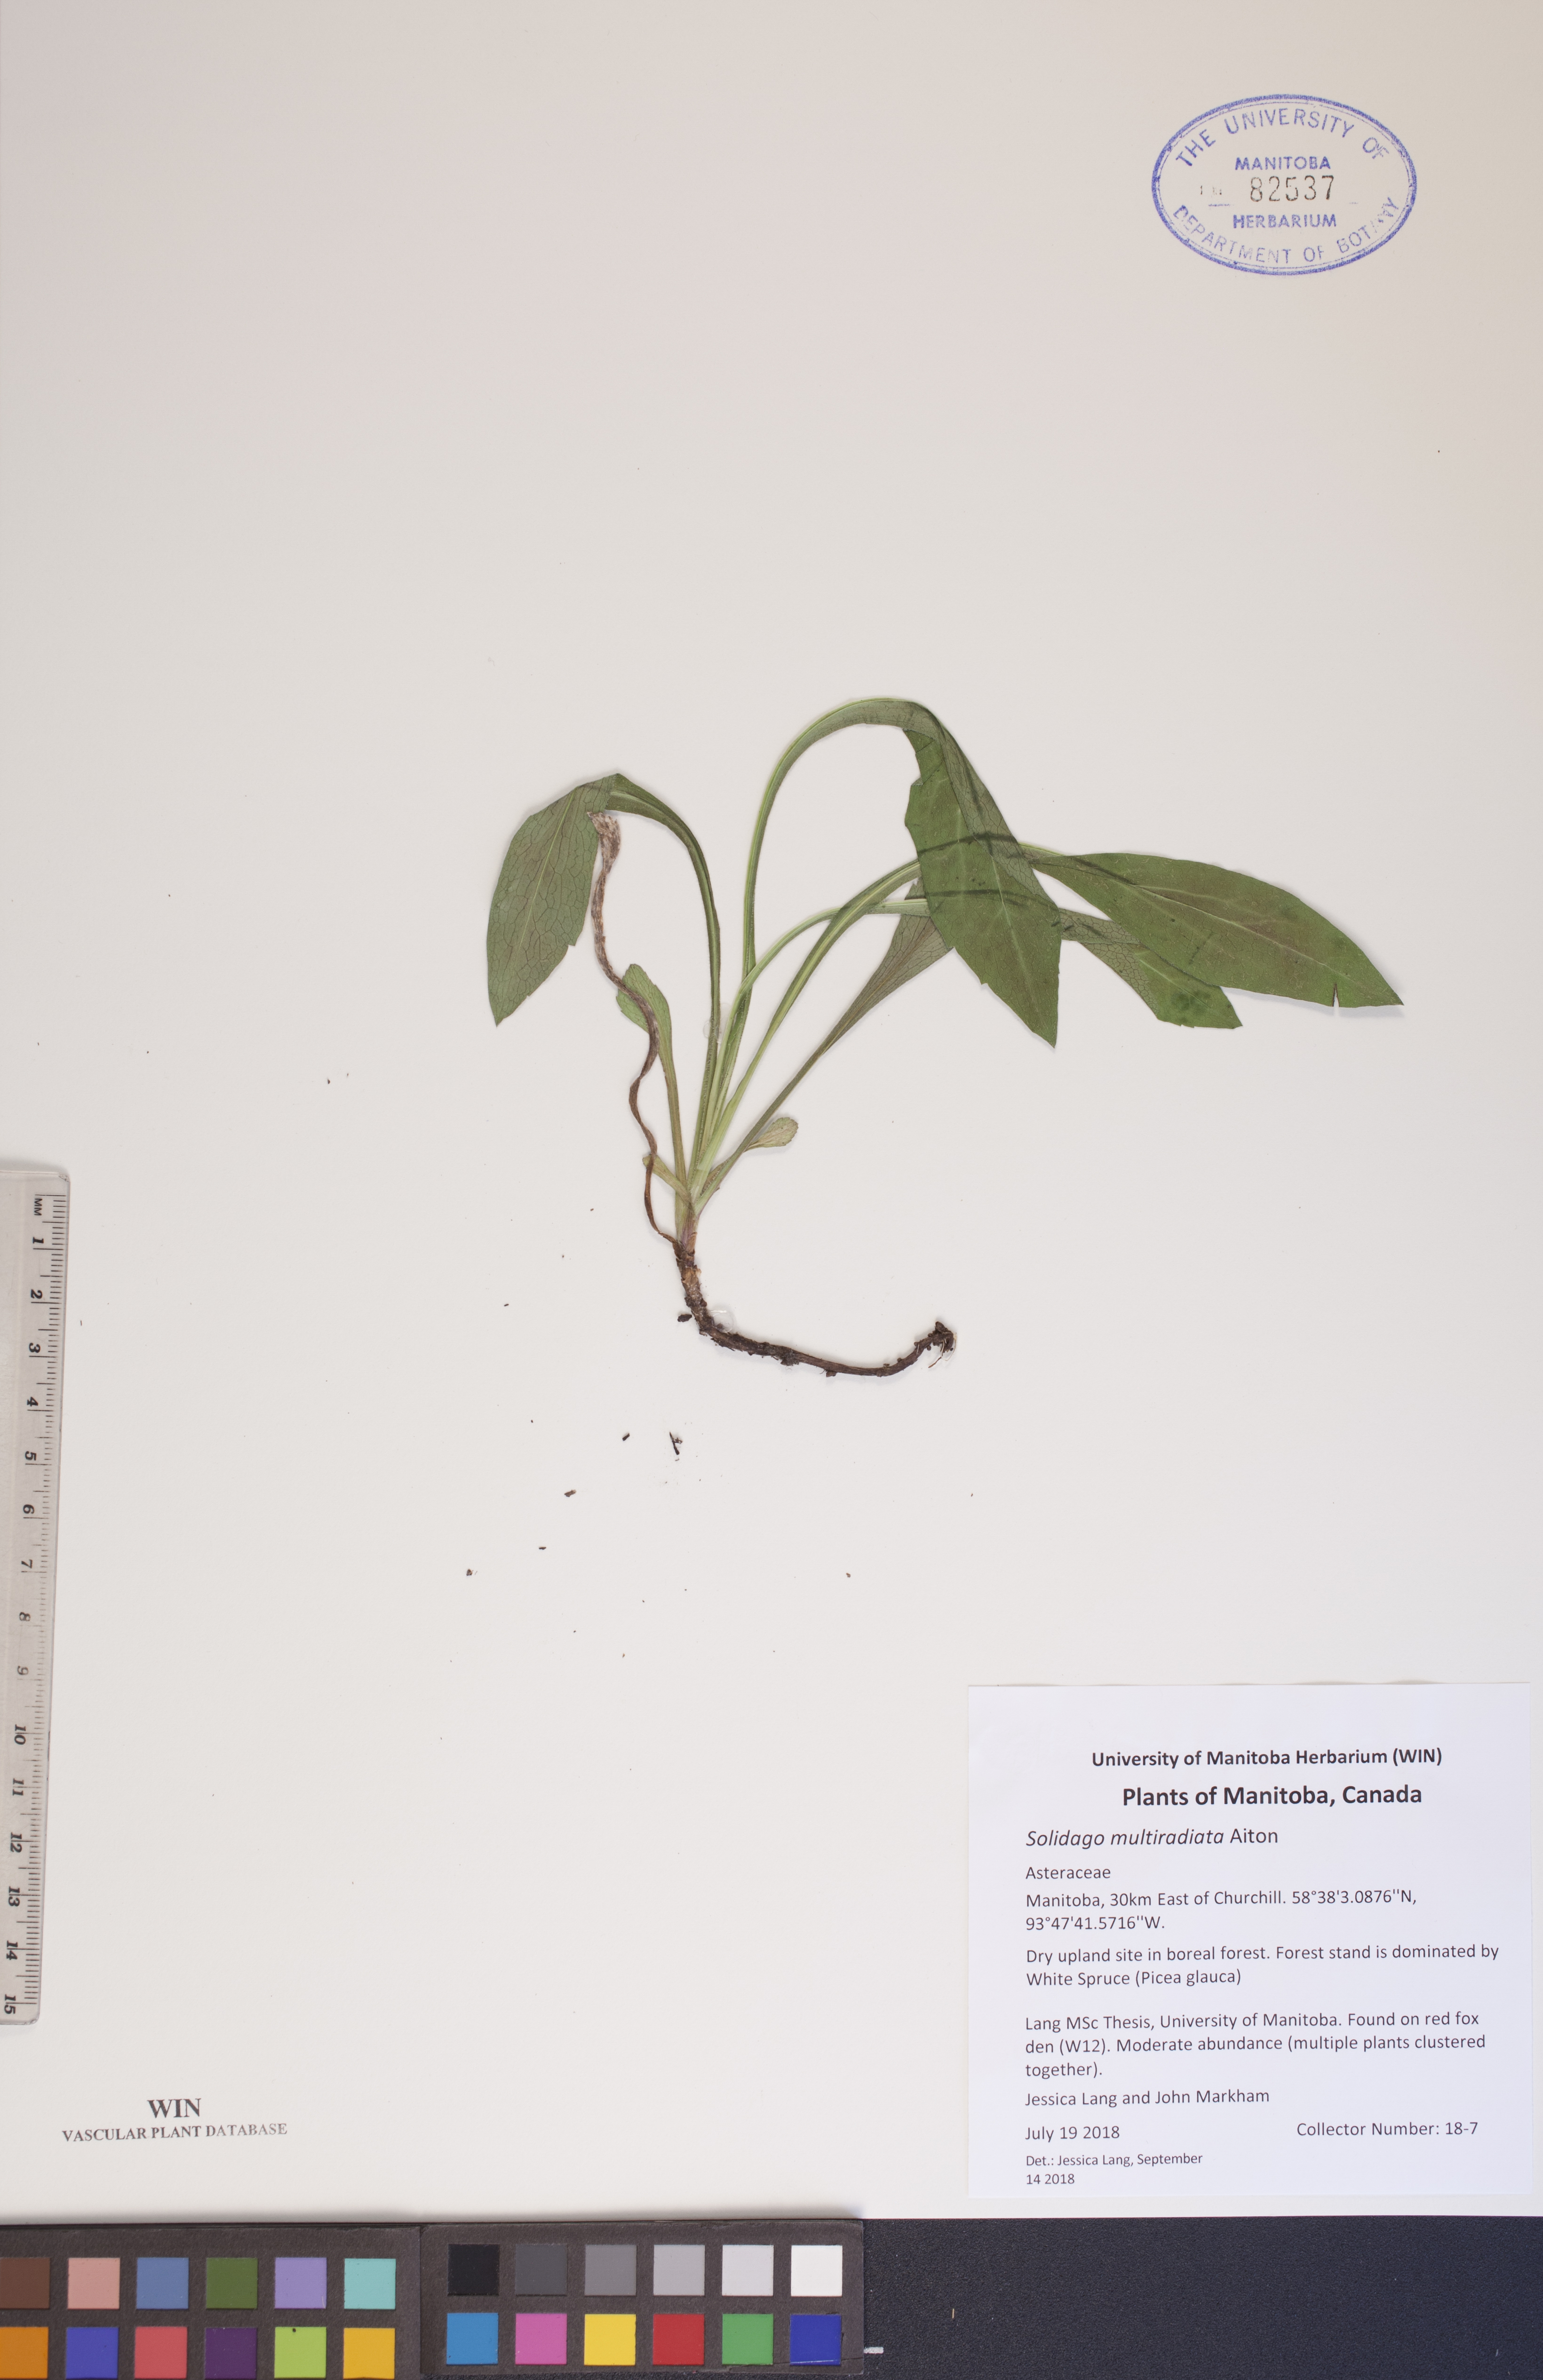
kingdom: Plantae
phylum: Tracheophyta
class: Magnoliopsida
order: Asterales
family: Asteraceae
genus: Solidago
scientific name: Solidago multiradiata
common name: Northern goldenrod
